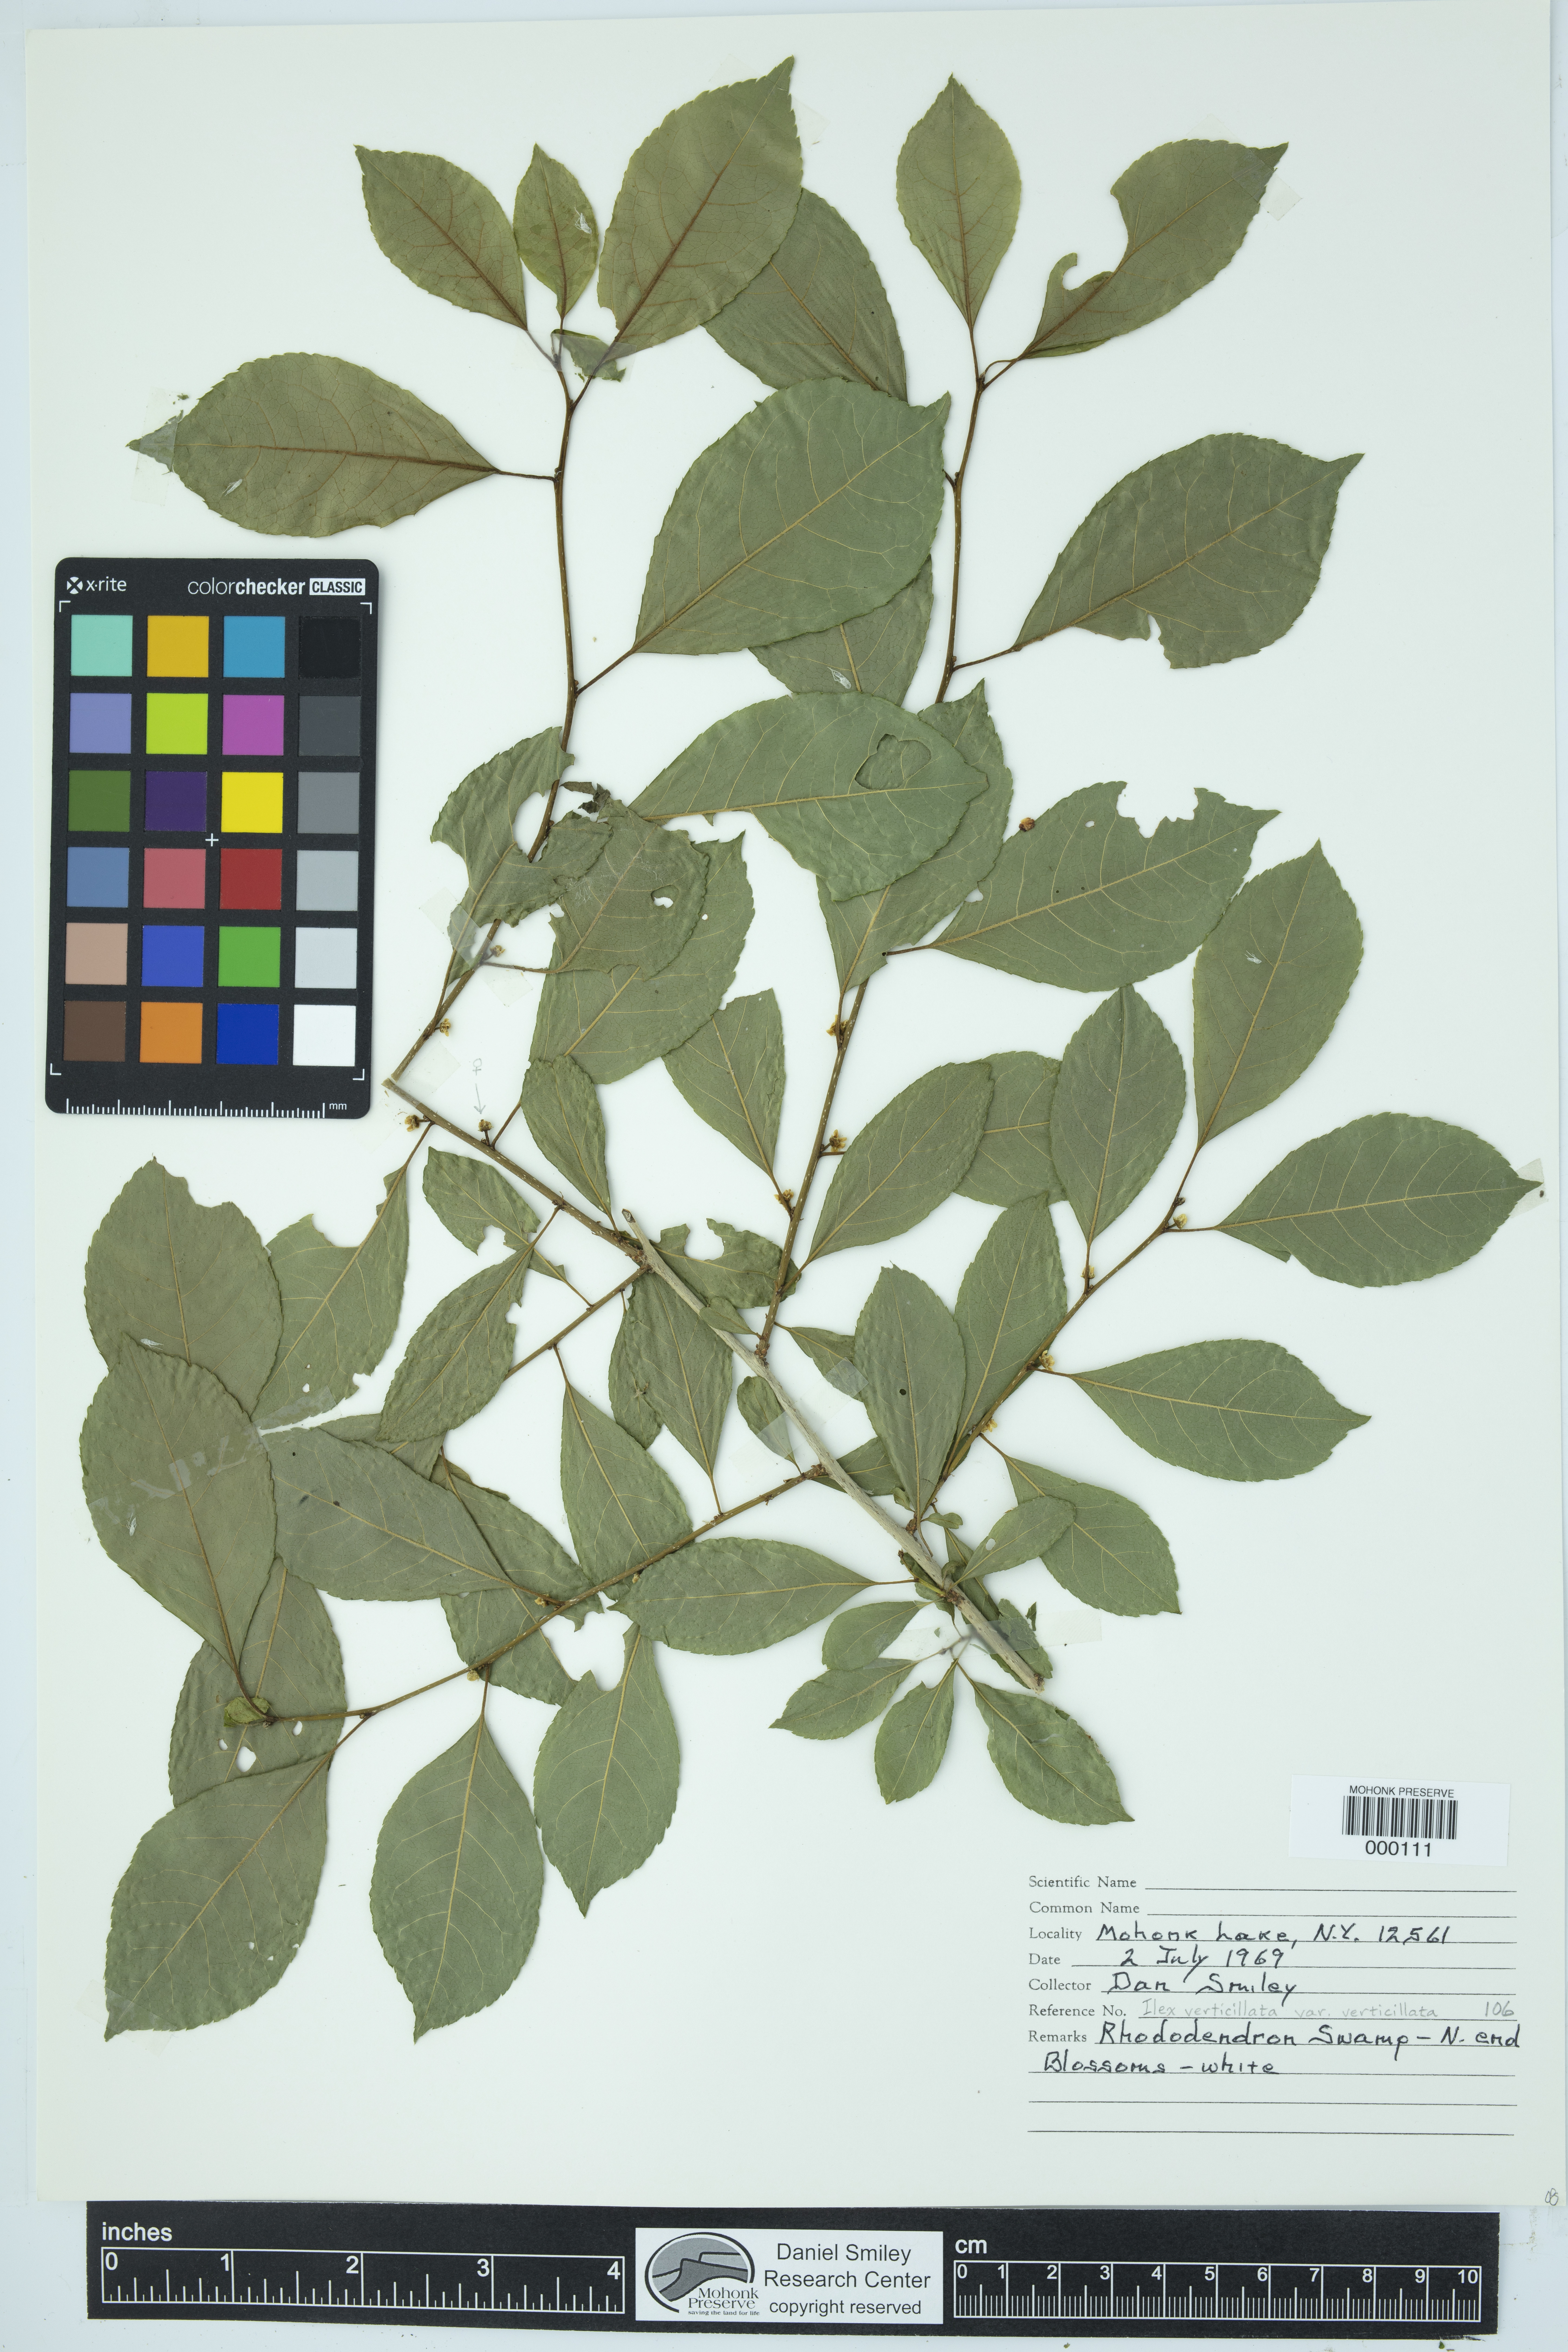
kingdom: Plantae
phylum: Tracheophyta
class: Magnoliopsida
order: Aquifoliales
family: Aquifoliaceae
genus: Ilex
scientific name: Ilex verticillata
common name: Virginia winterberry
